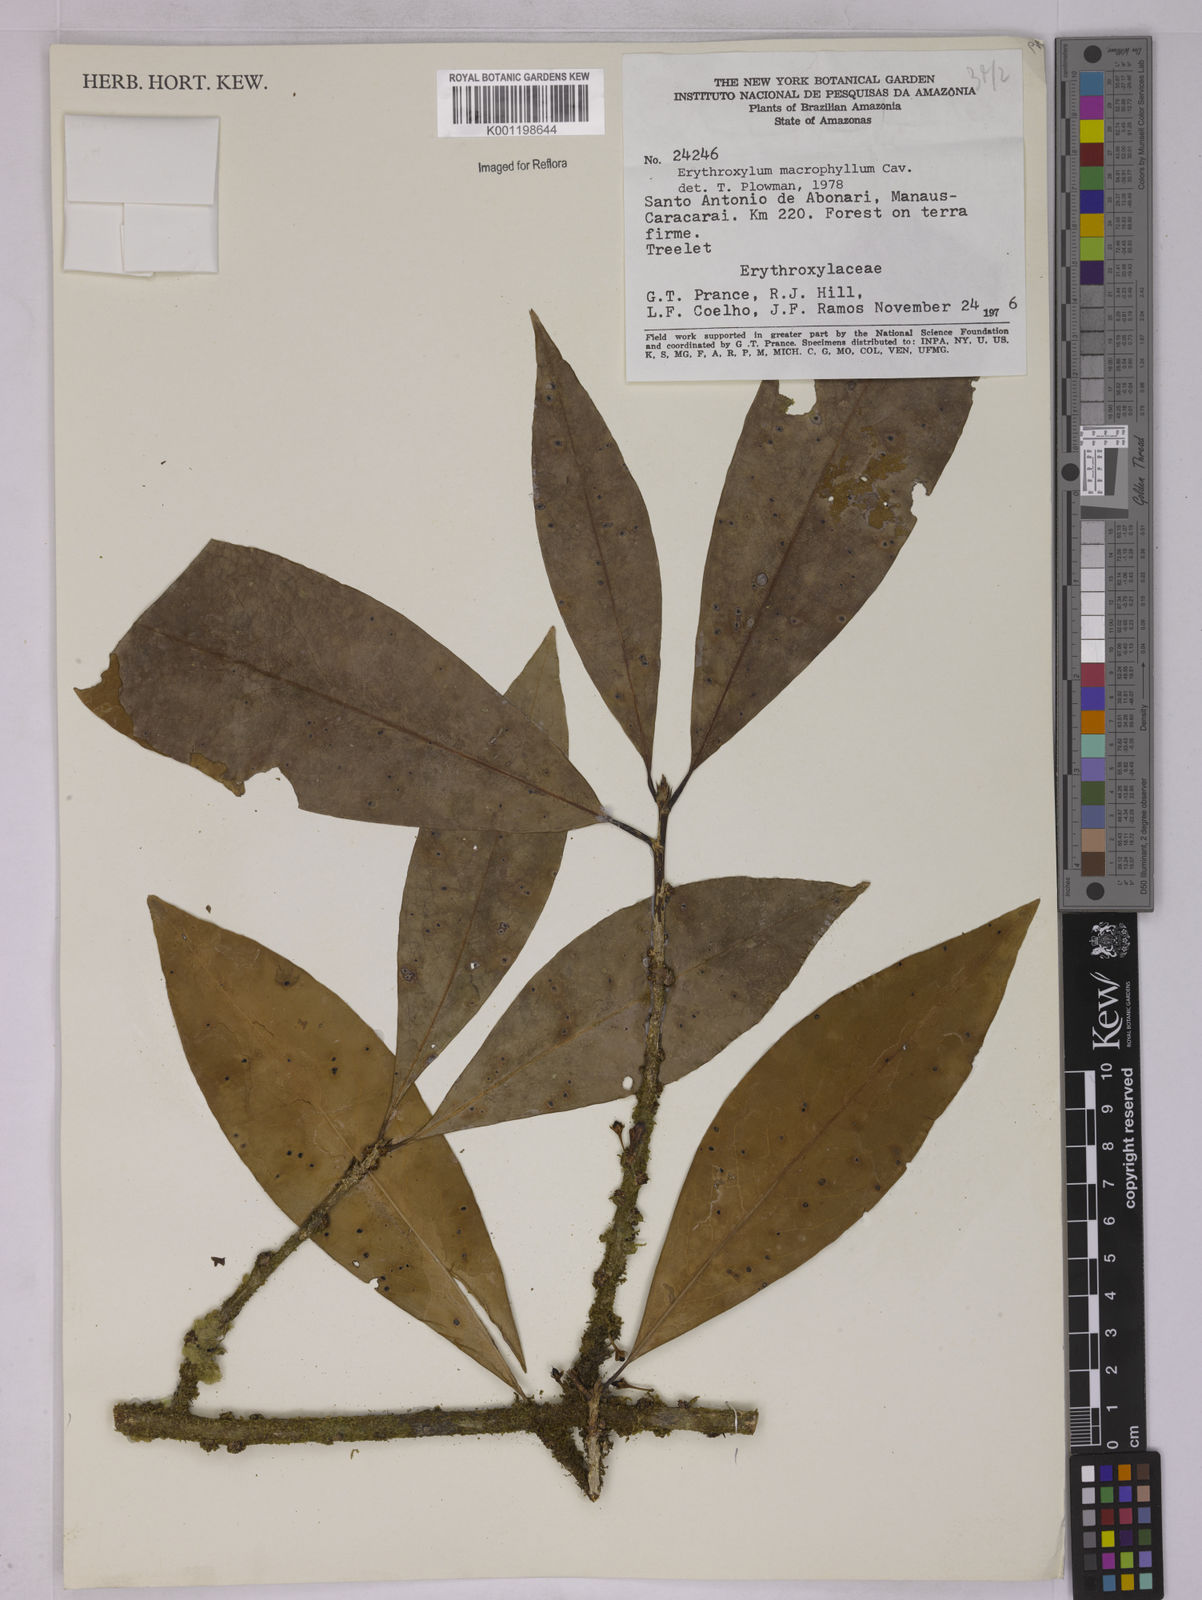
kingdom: Plantae
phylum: Tracheophyta
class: Magnoliopsida
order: Malpighiales
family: Erythroxylaceae
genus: Erythroxylum
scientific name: Erythroxylum macrophyllum
